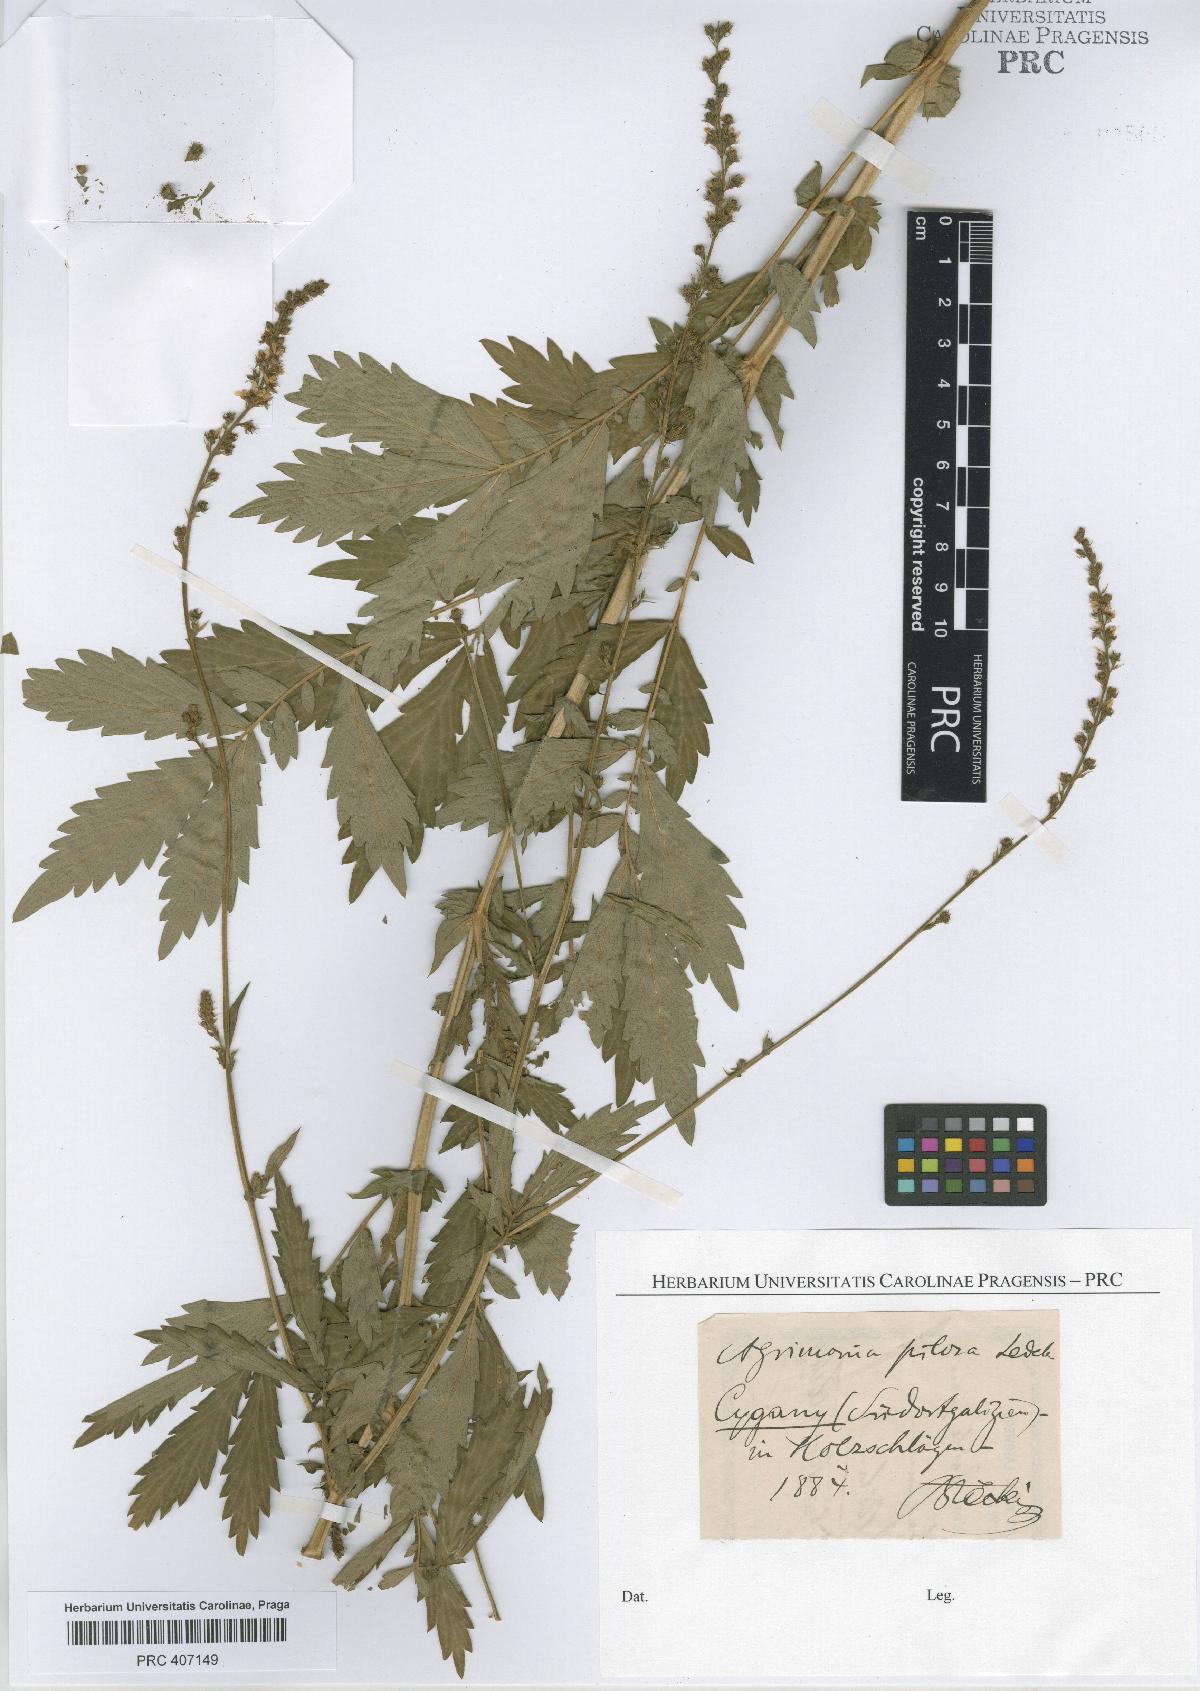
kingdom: Plantae
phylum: Tracheophyta
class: Magnoliopsida
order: Rosales
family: Rosaceae
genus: Agrimonia
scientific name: Agrimonia pilosa
